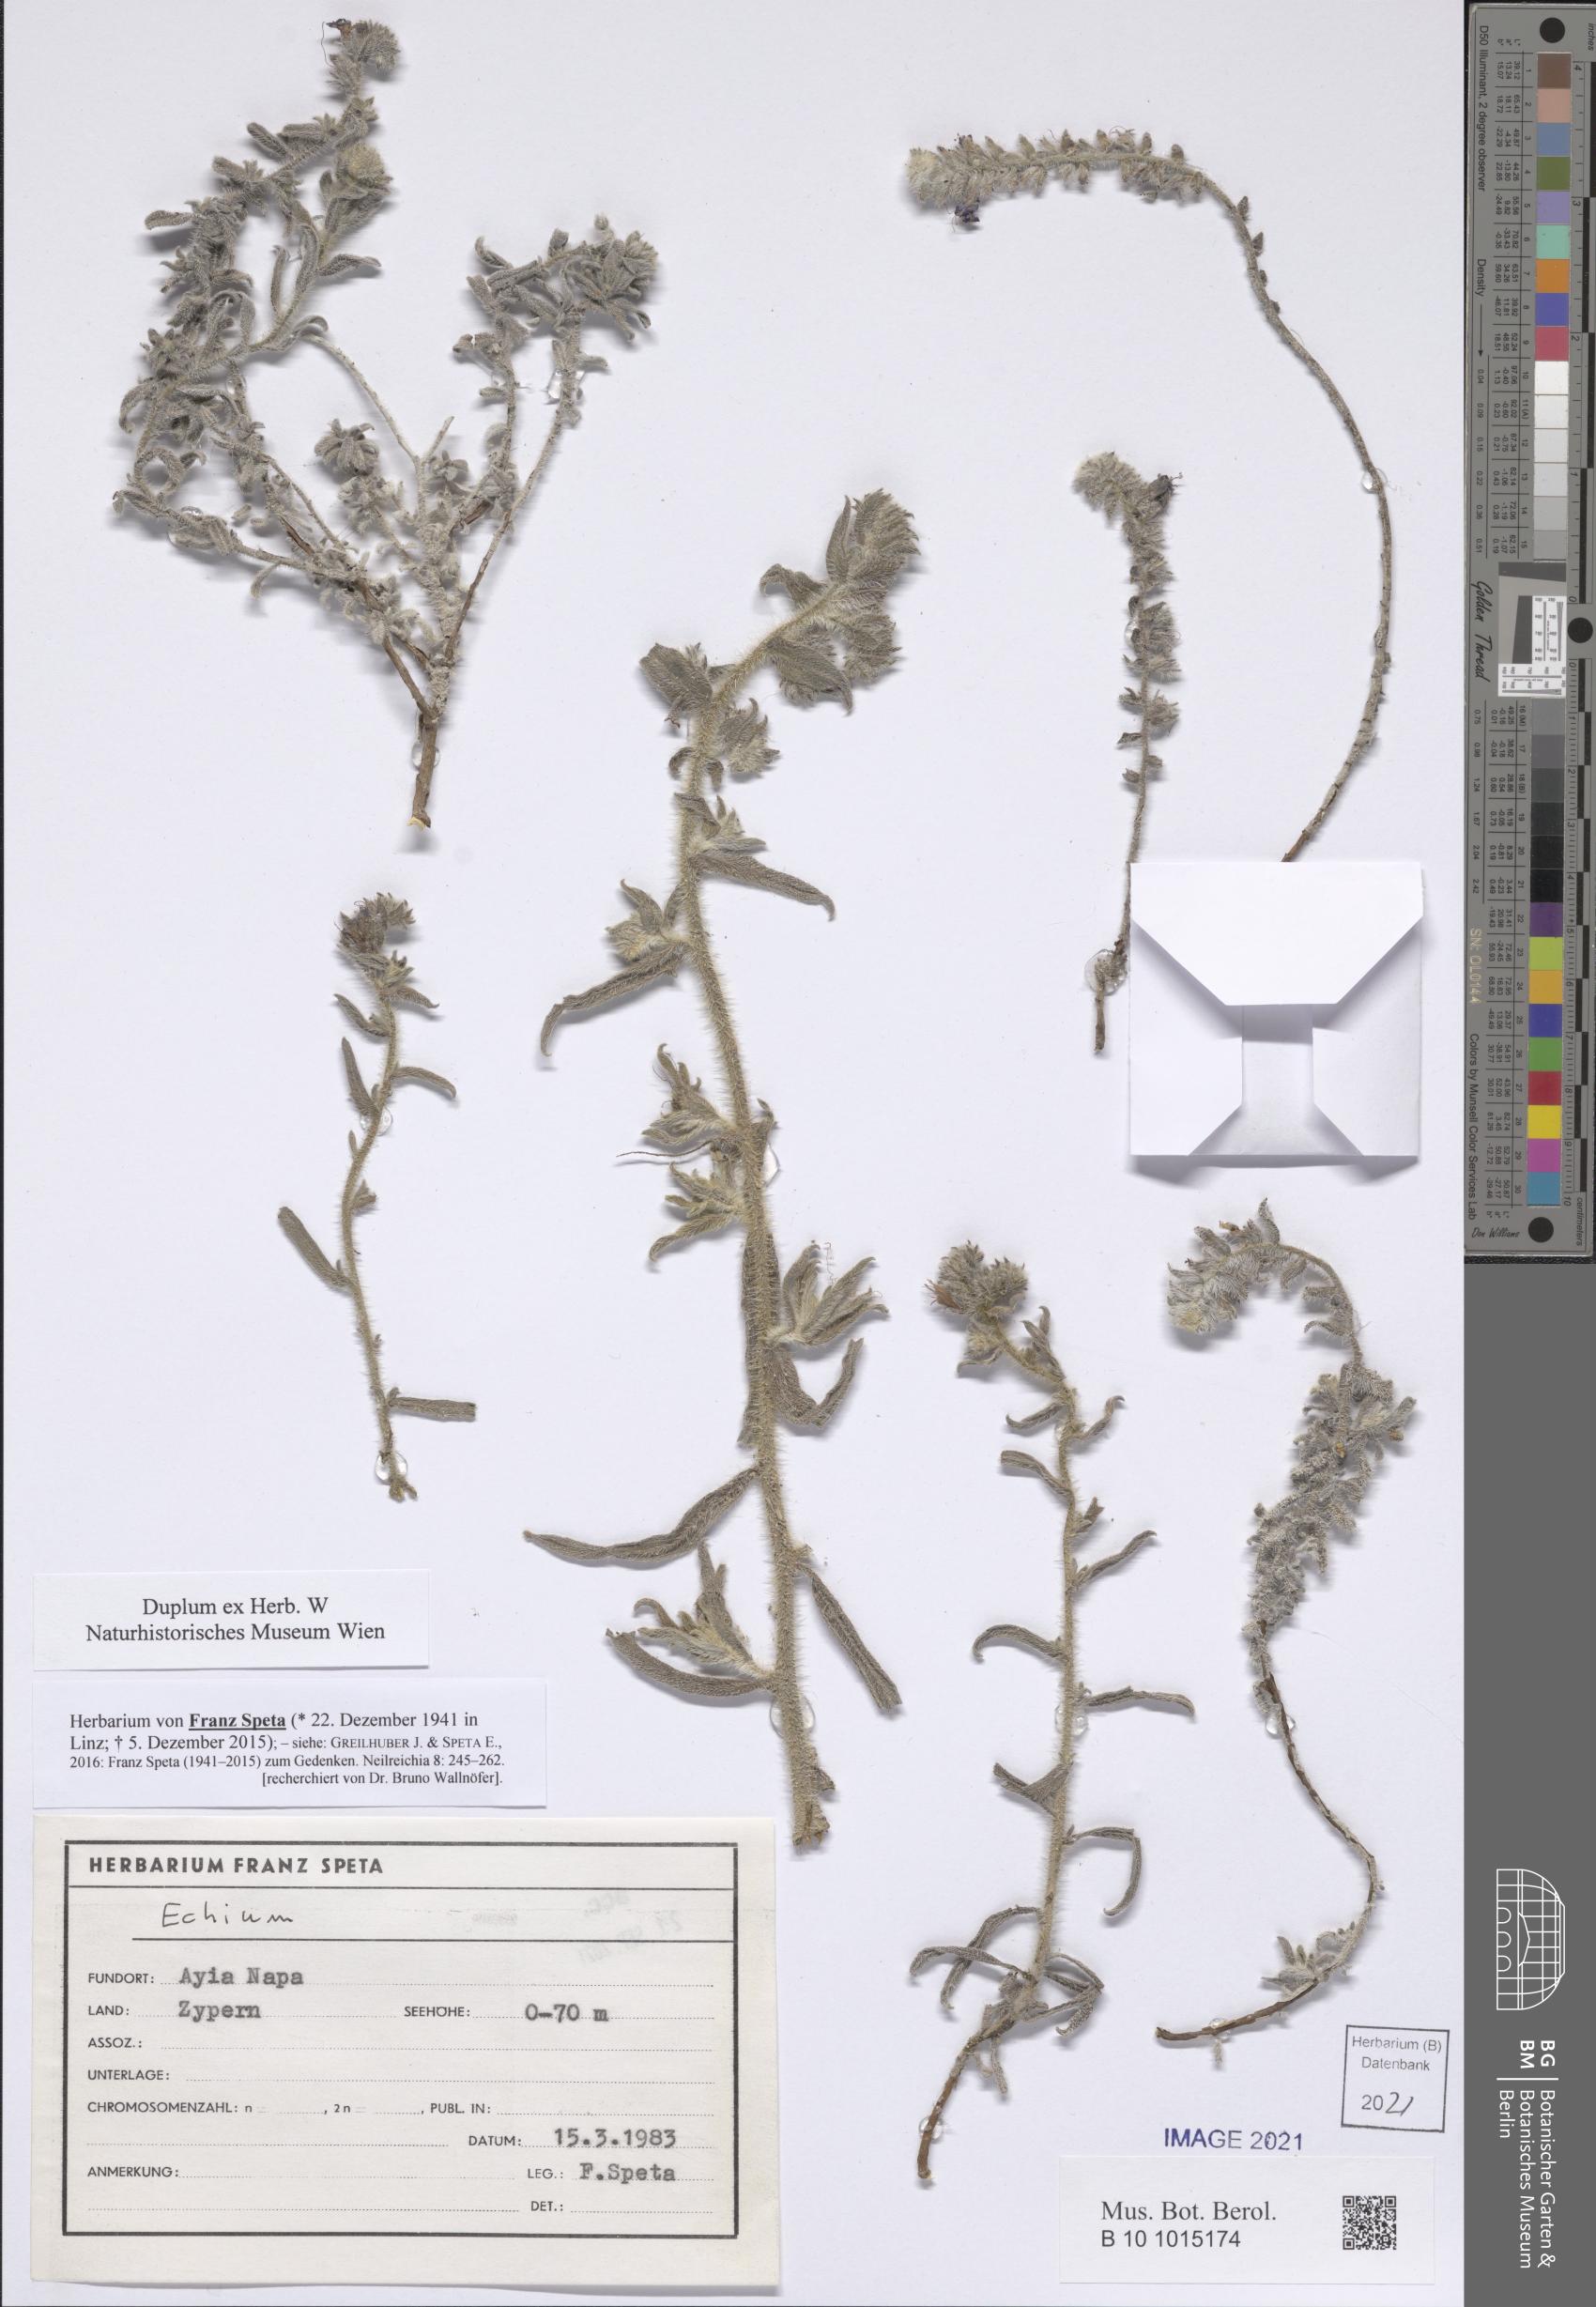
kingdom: Plantae
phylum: Tracheophyta
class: Magnoliopsida
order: Boraginales
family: Boraginaceae
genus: Echium
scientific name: Echium
